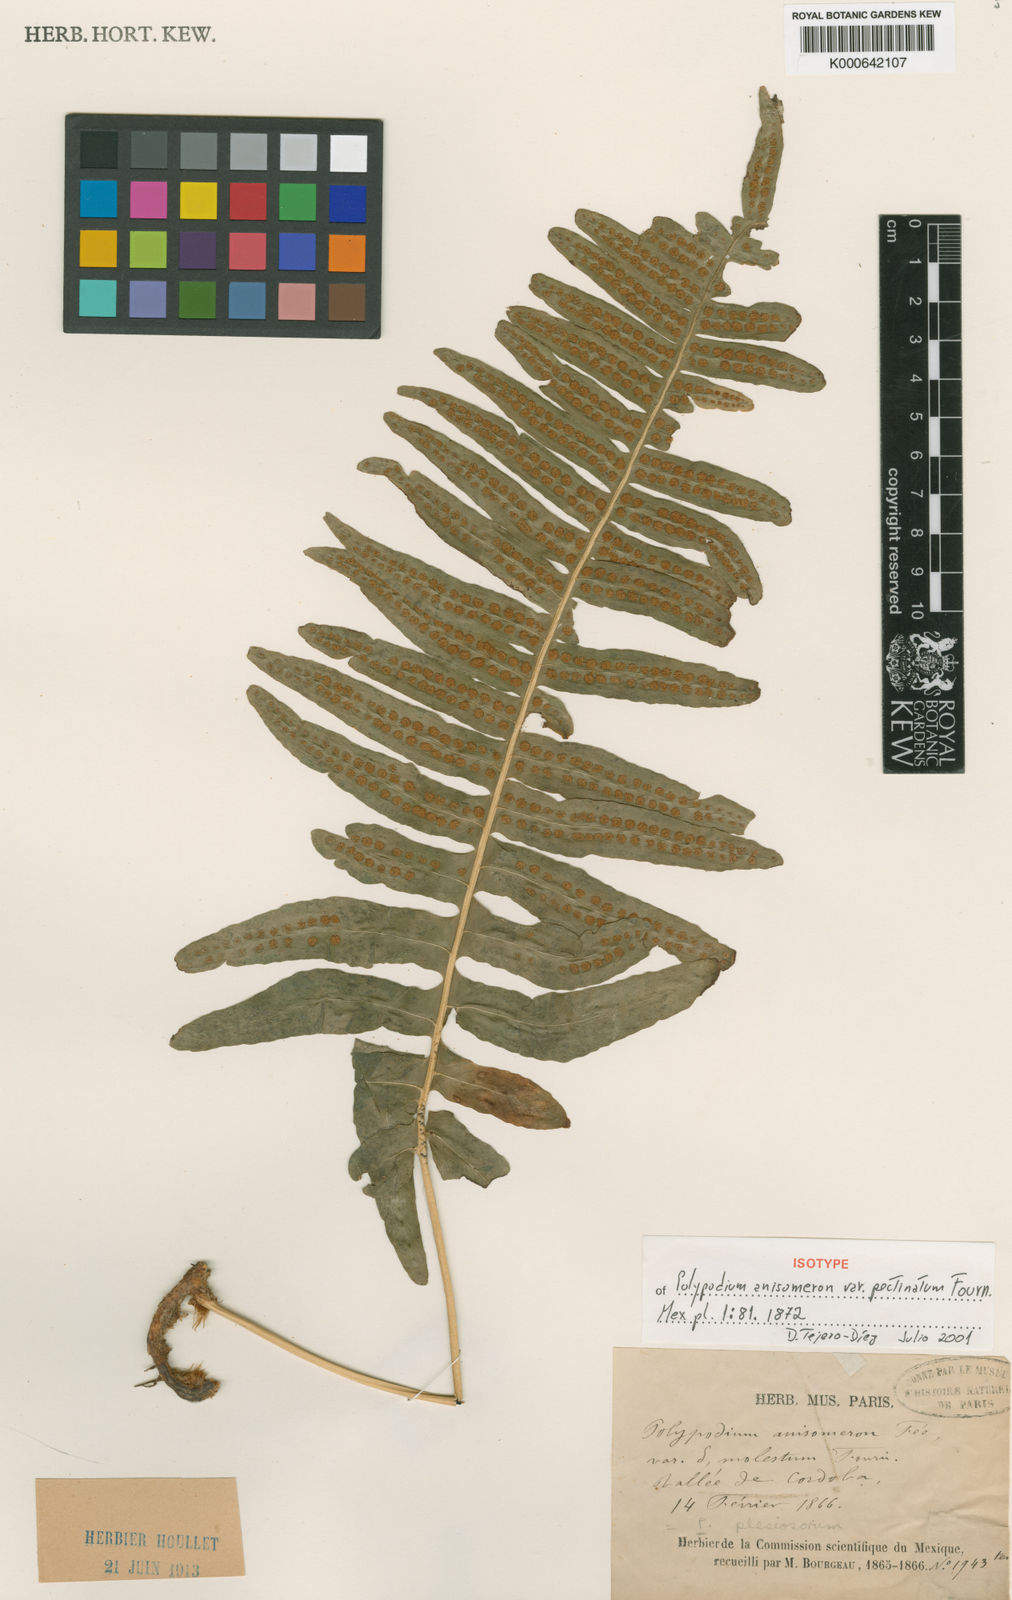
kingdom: Plantae
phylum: Tracheophyta
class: Polypodiopsida
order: Polypodiales
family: Polypodiaceae
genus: Polypodium
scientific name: Polypodium plesiosorum
